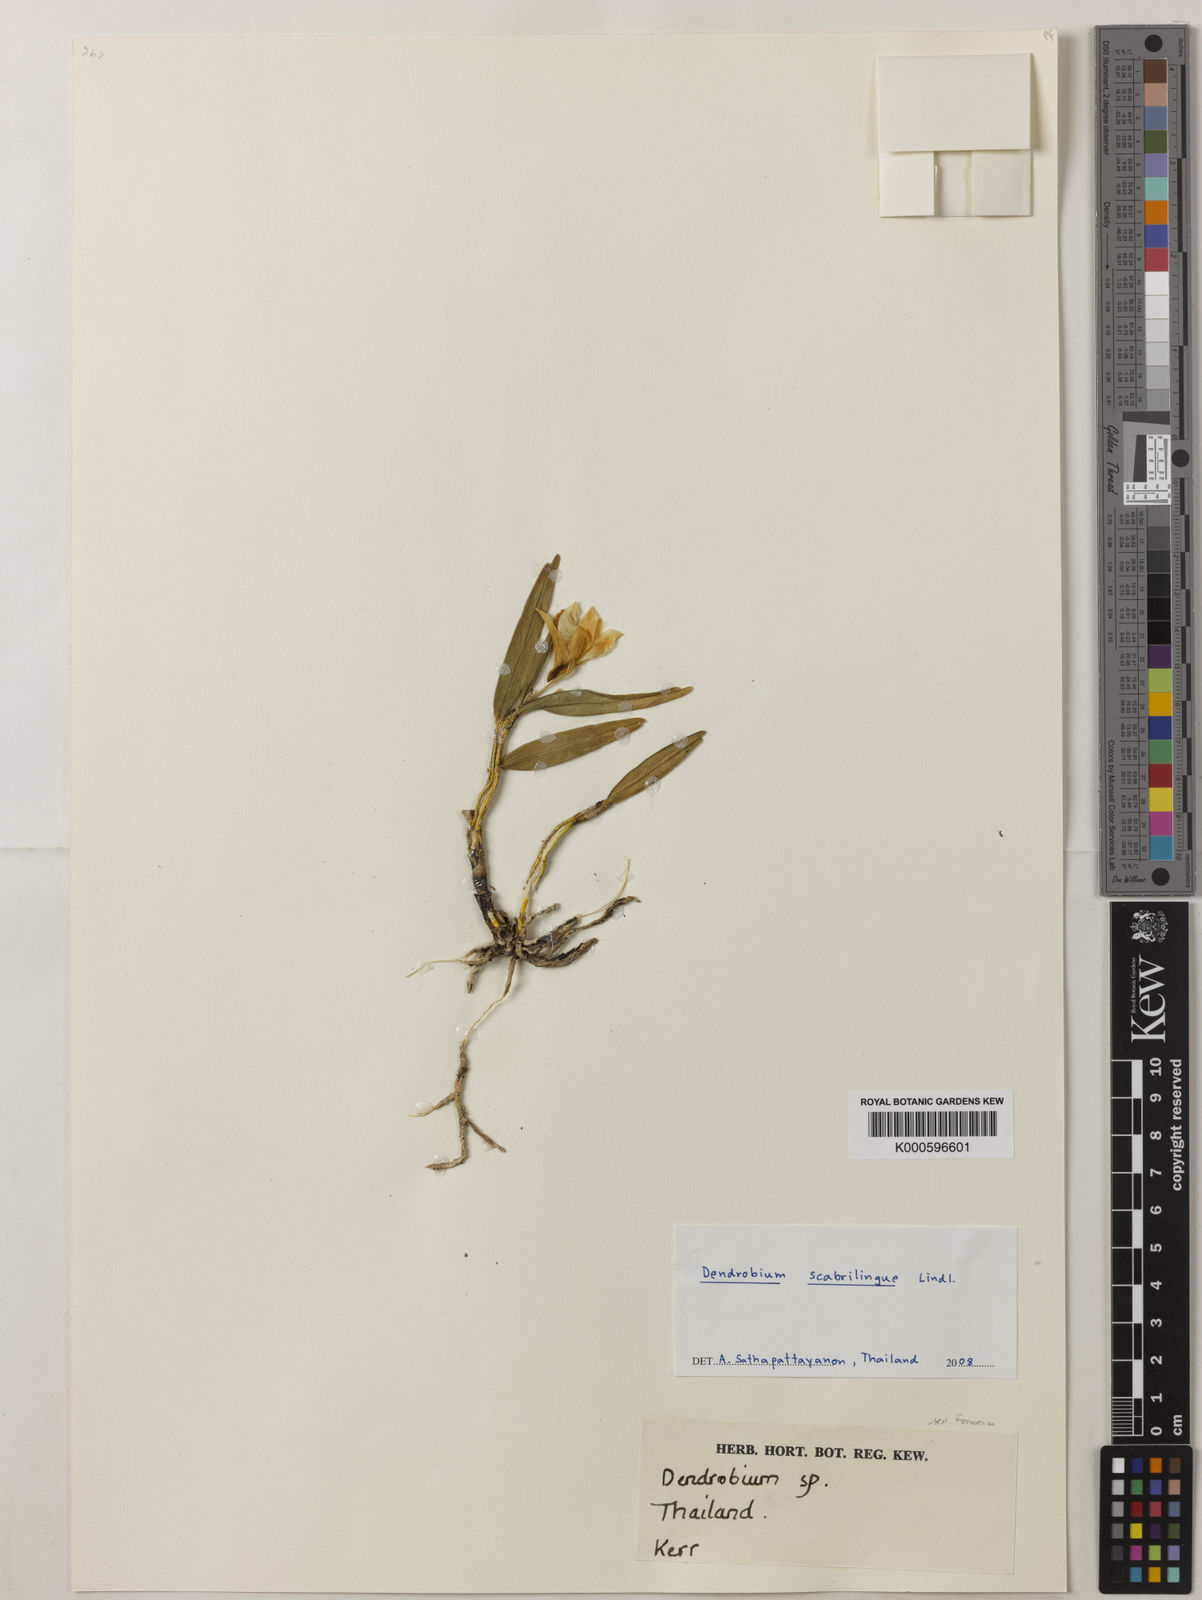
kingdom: Plantae
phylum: Tracheophyta
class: Liliopsida
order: Asparagales
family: Orchidaceae
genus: Dendrobium
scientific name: Dendrobium scabrilingue
